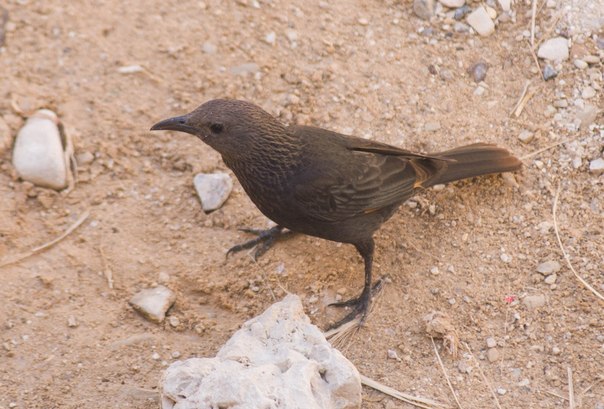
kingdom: Animalia
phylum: Chordata
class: Aves
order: Passeriformes
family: Sturnidae
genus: Onychognathus
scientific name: Onychognathus tristramii
